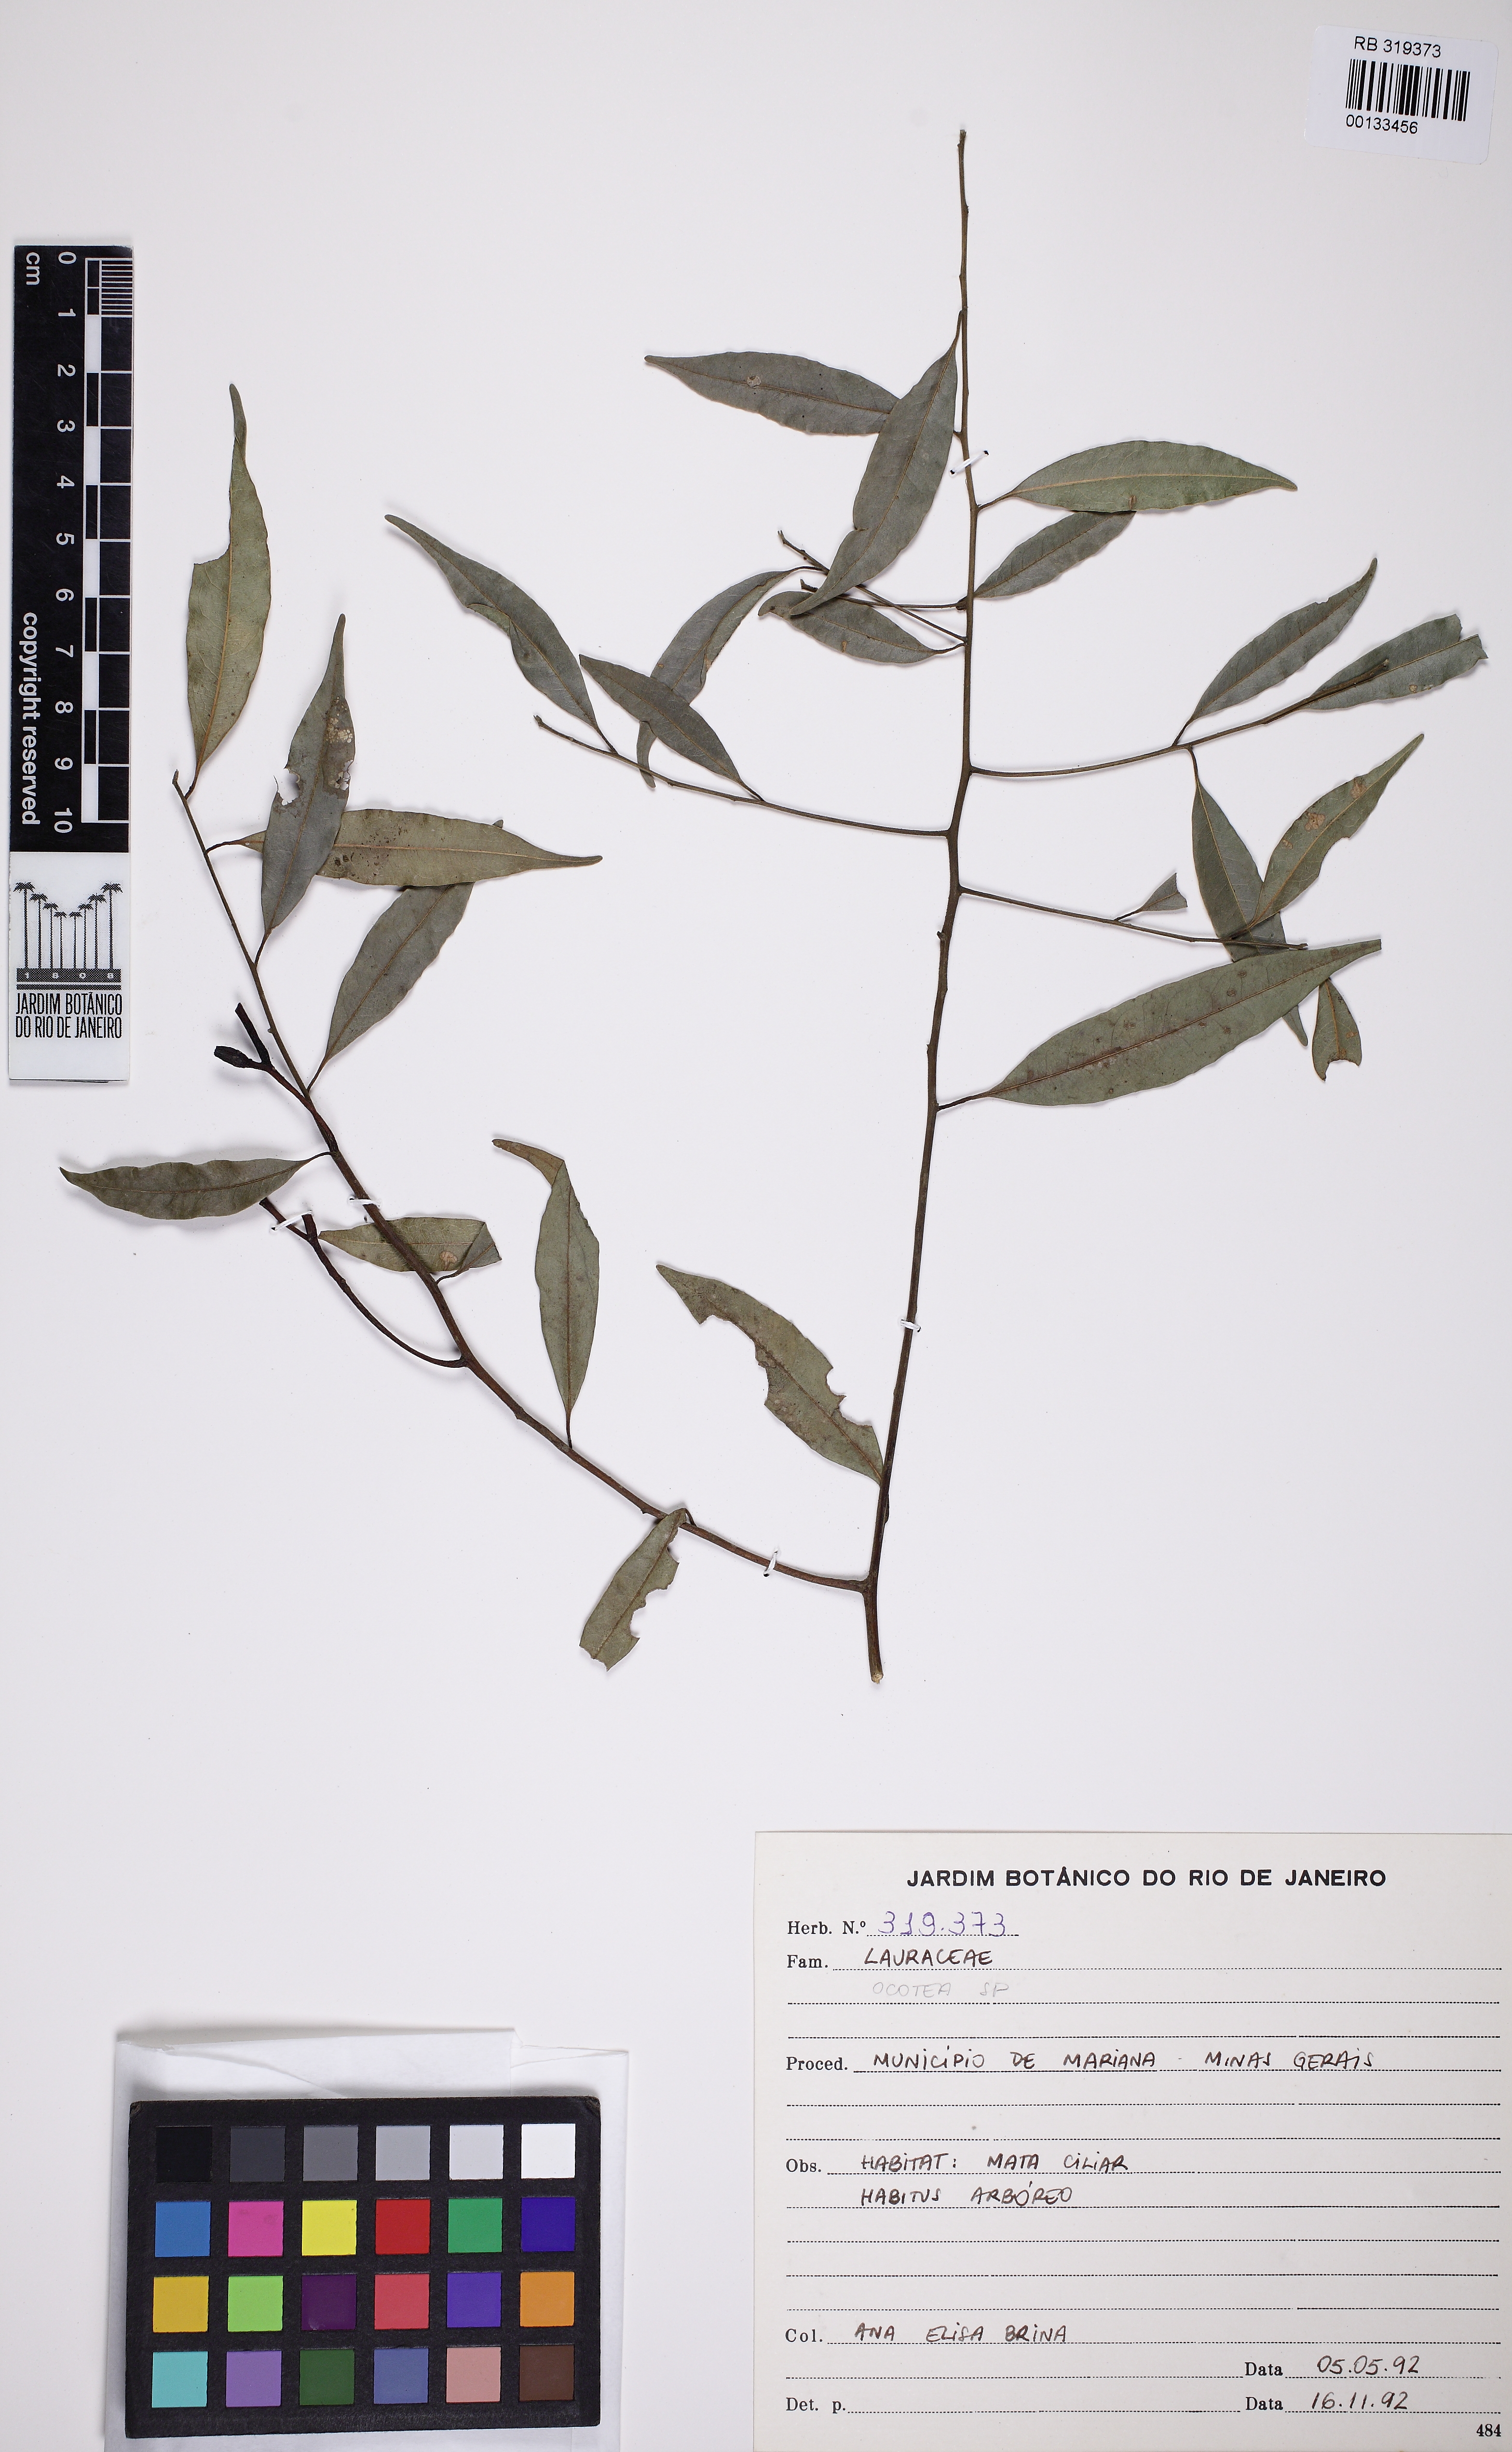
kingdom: Plantae
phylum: Tracheophyta
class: Magnoliopsida
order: Laurales
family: Lauraceae
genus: Ocotea
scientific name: Ocotea
